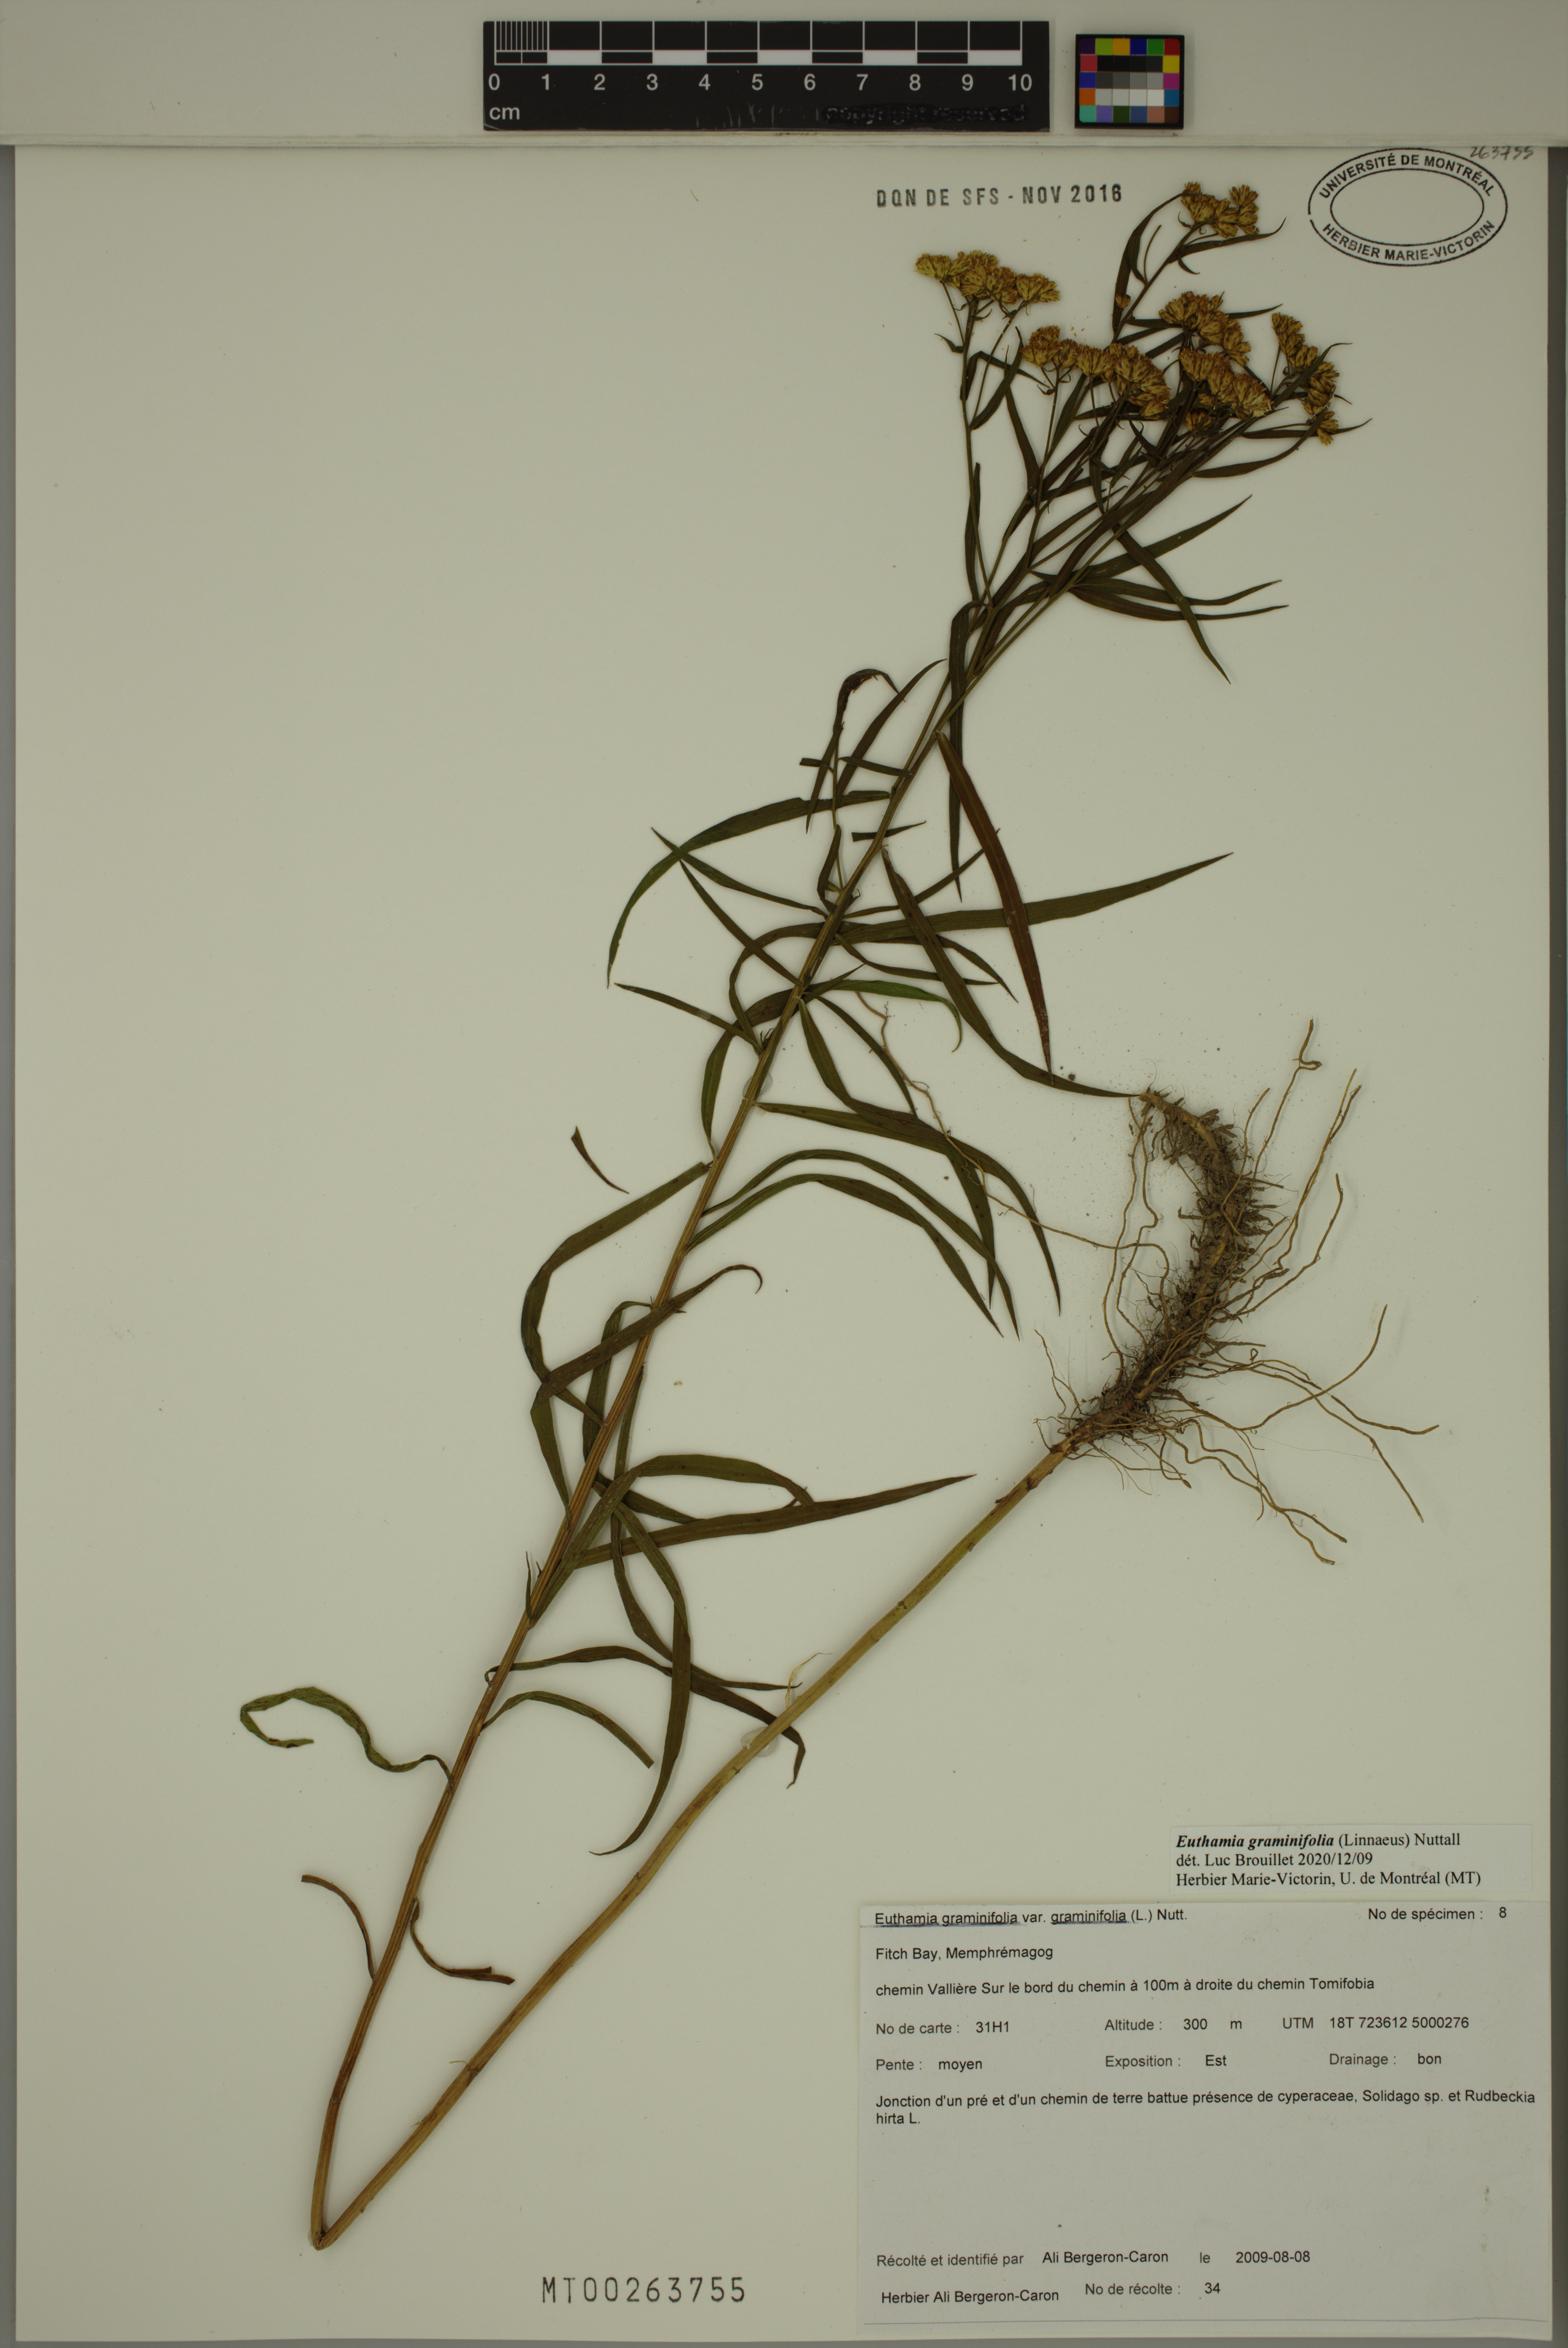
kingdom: Plantae
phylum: Tracheophyta
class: Magnoliopsida
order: Asterales
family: Asteraceae
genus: Euthamia
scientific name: Euthamia graminifolia
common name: Common goldentop
